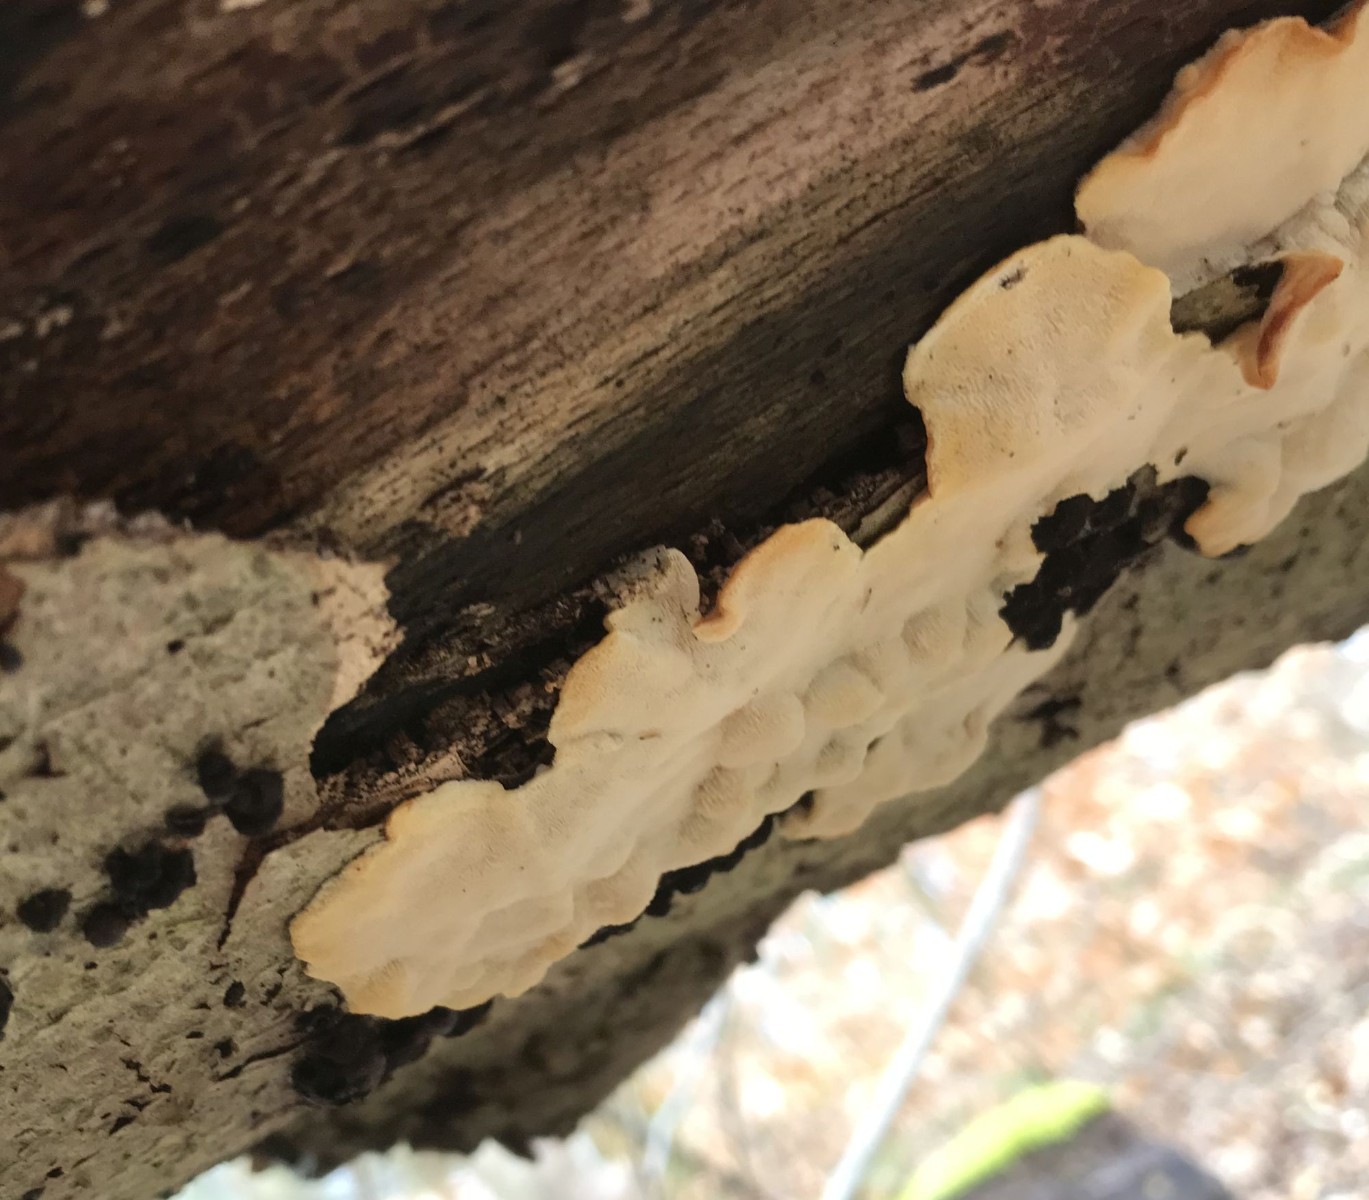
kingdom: Fungi
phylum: Basidiomycota
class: Agaricomycetes
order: Polyporales
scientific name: Polyporales
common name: poresvampordenen
